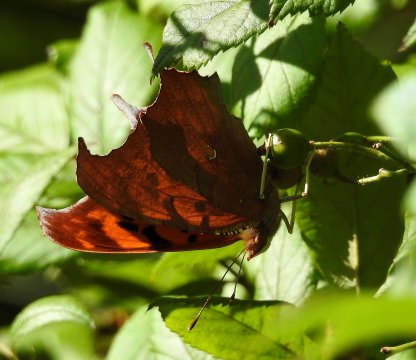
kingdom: Animalia
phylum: Arthropoda
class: Insecta
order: Lepidoptera
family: Nymphalidae
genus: Polygonia
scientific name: Polygonia interrogationis
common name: Question Mark
